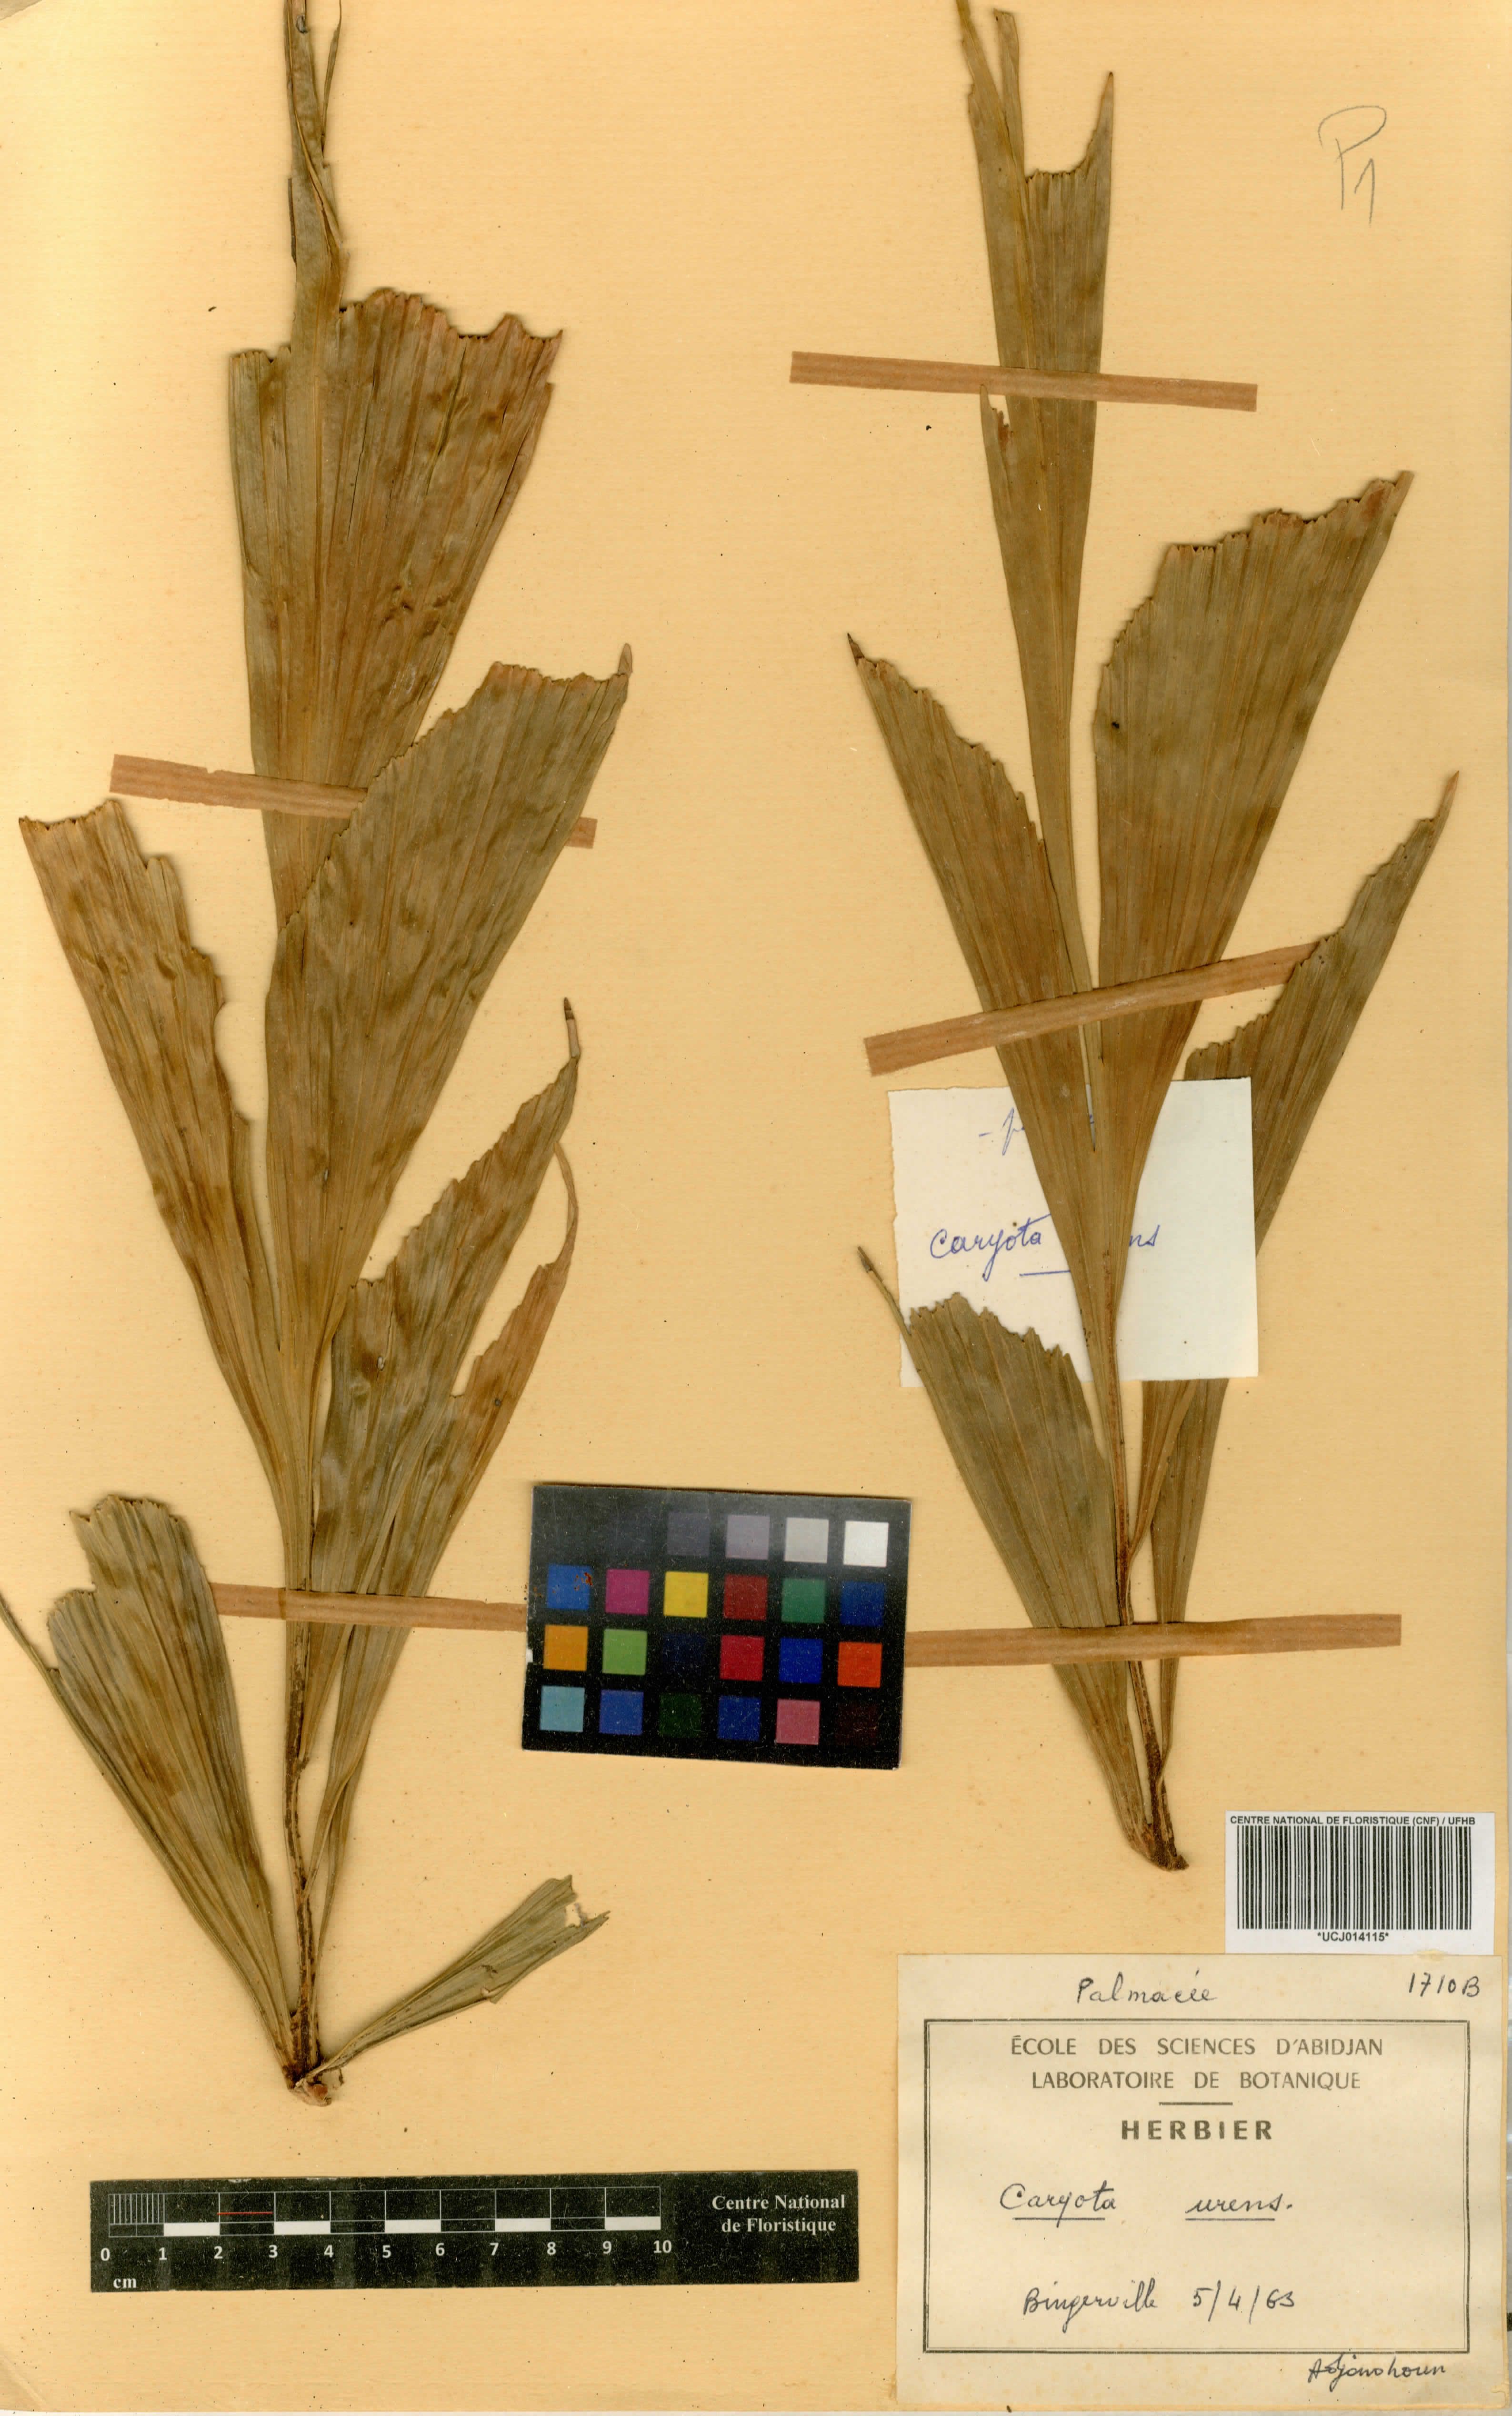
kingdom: Plantae
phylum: Tracheophyta
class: Liliopsida
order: Arecales
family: Arecaceae
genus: Caryota
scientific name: Caryota urens
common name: Jaggery palm
